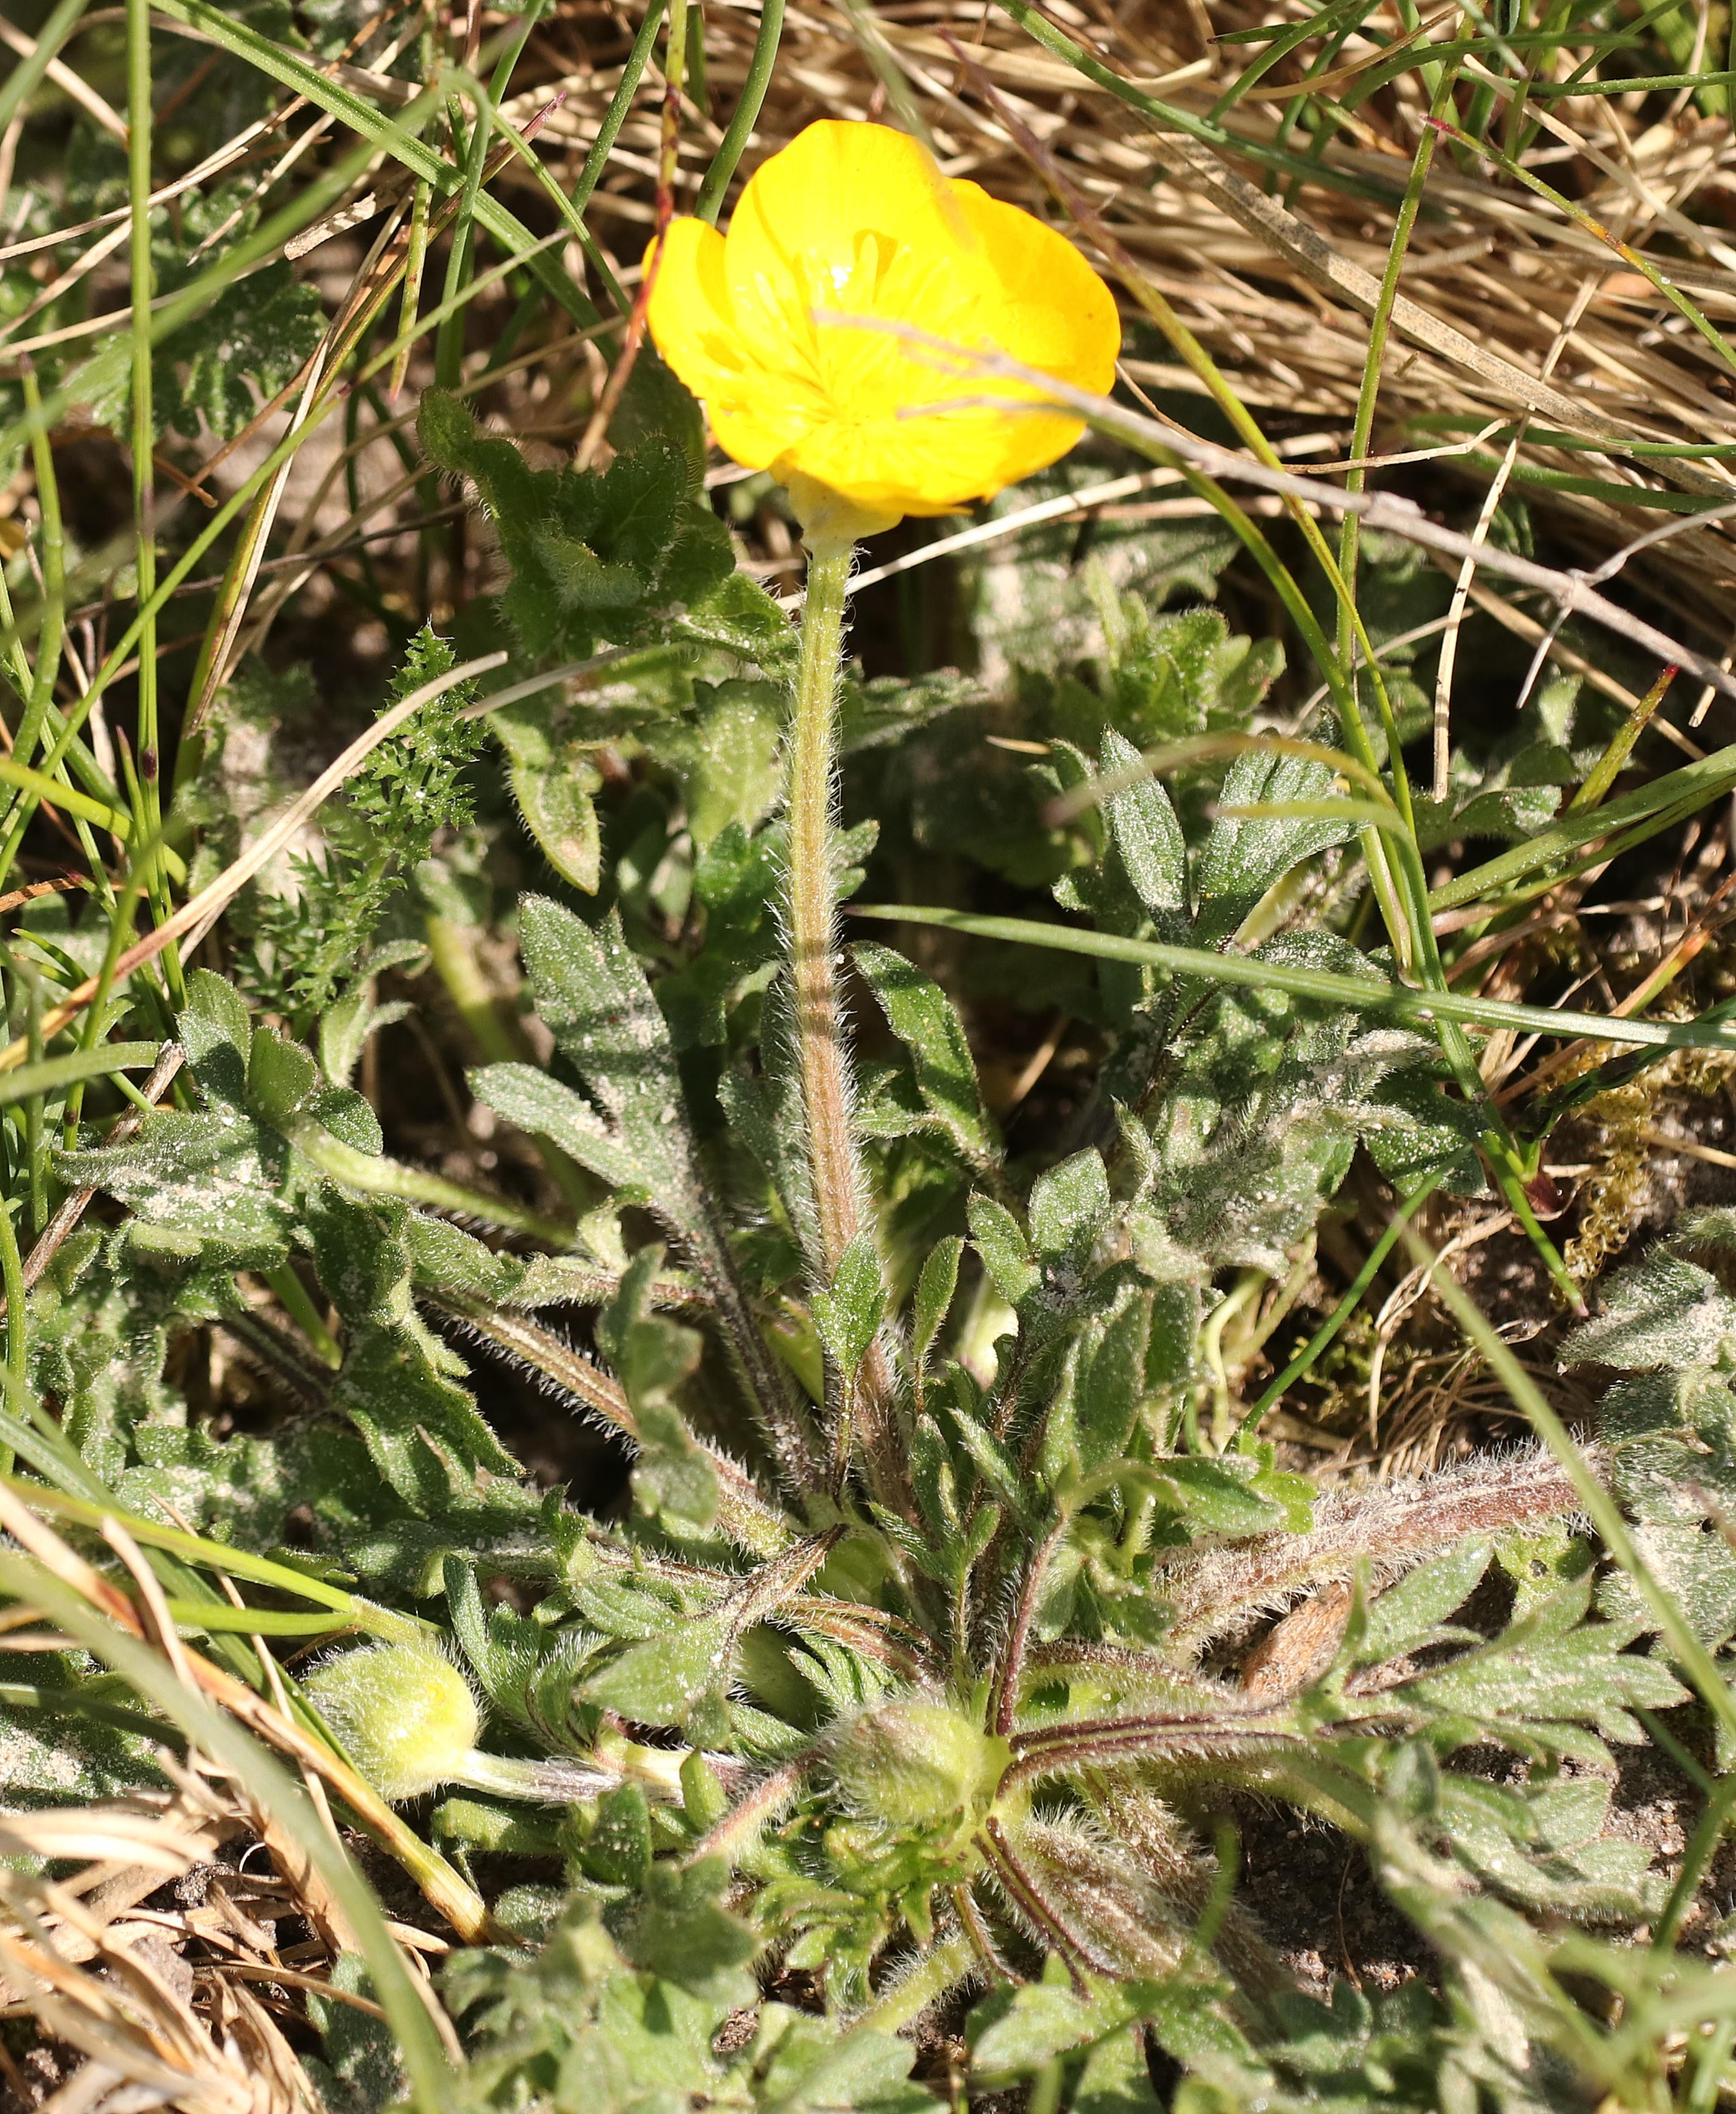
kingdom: Plantae
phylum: Tracheophyta
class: Magnoliopsida
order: Ranunculales
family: Ranunculaceae
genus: Ranunculus
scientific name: Ranunculus bulbosus
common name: Knold-ranunkel
